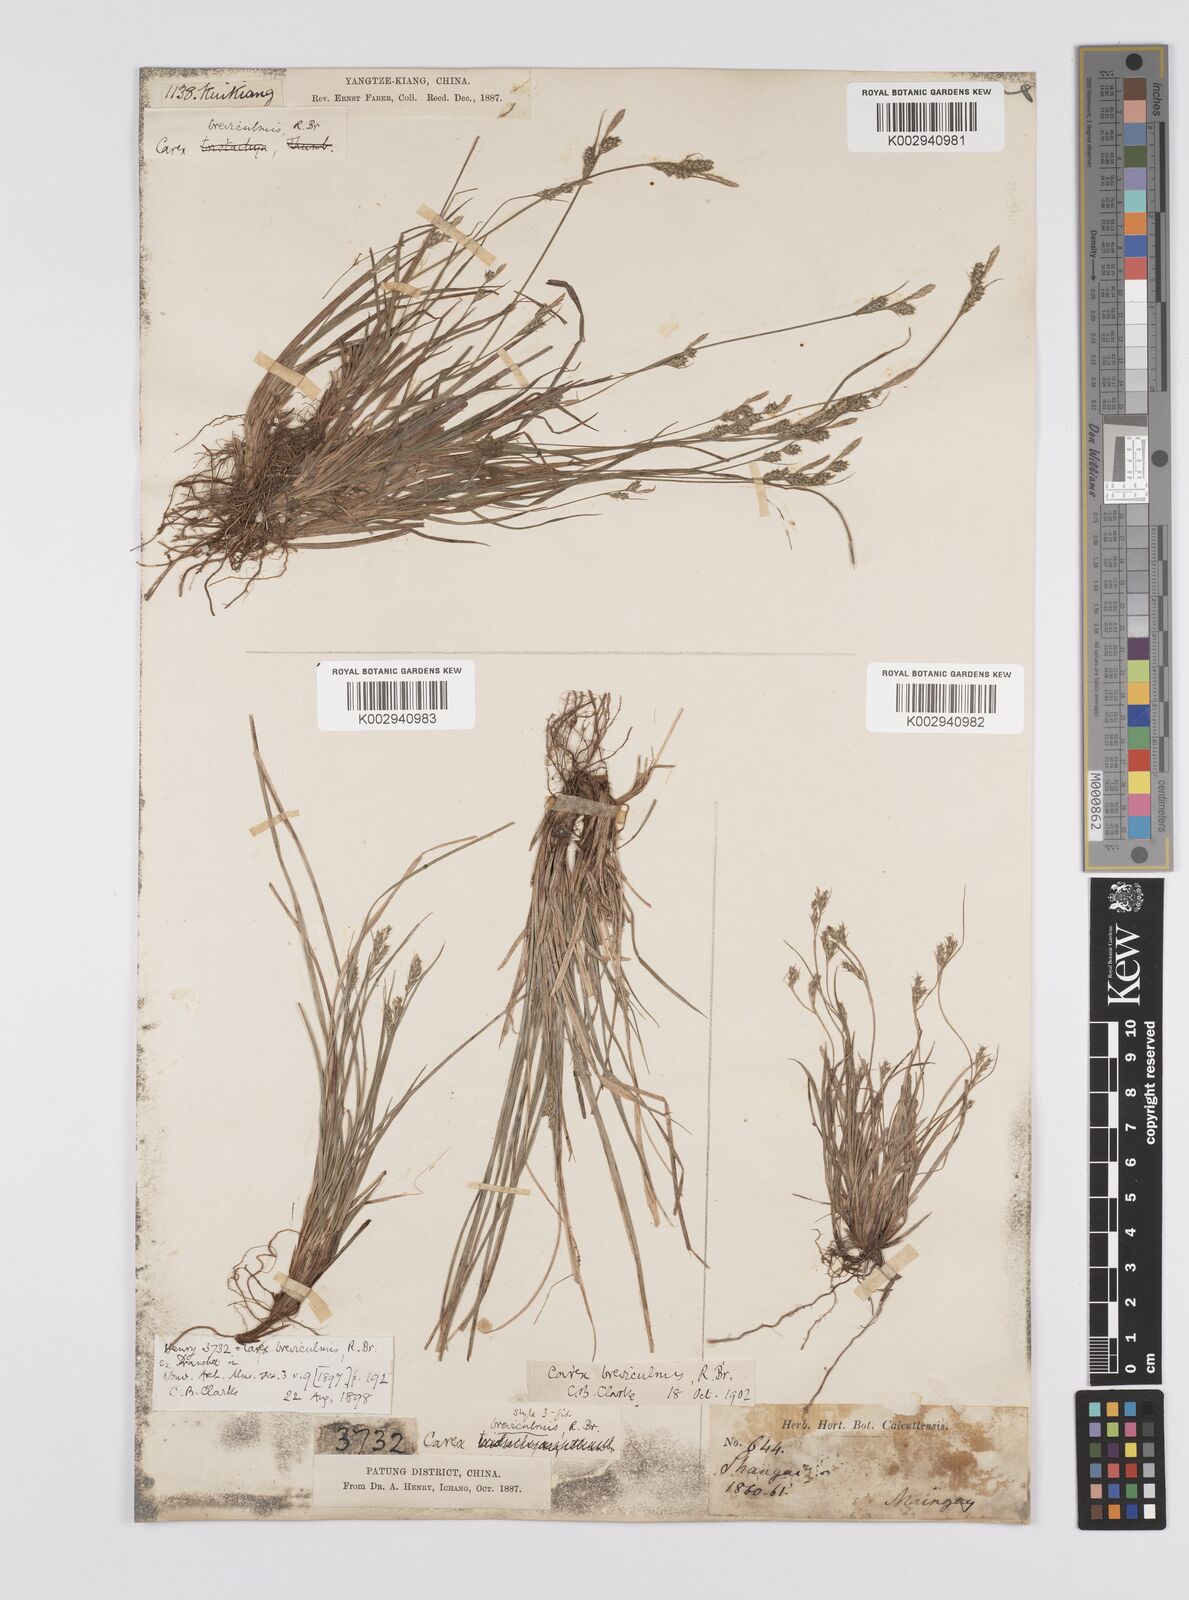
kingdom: Plantae
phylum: Tracheophyta
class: Liliopsida
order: Poales
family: Cyperaceae
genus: Carex
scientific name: Carex breviculmis
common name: Asian shortstem sedge
